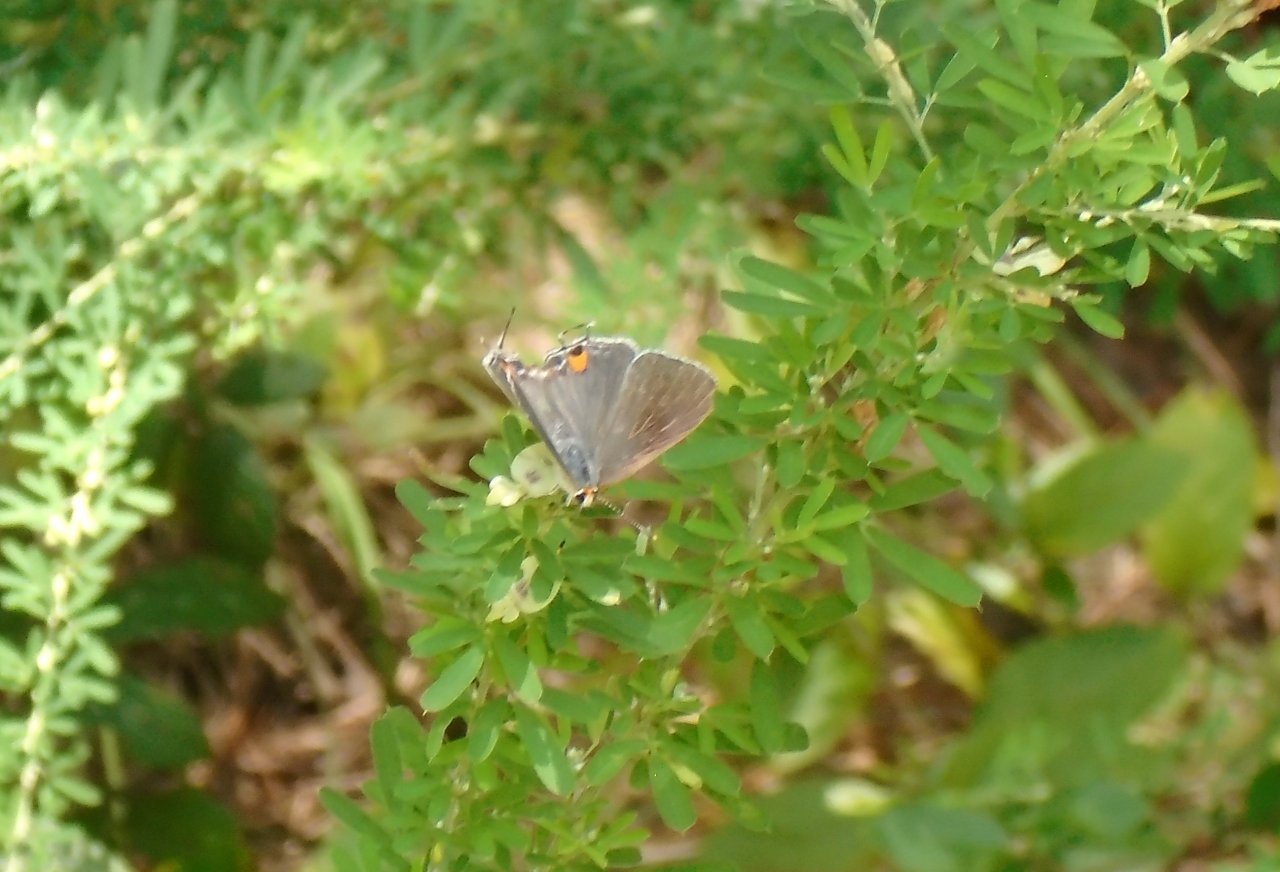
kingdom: Animalia
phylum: Arthropoda
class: Insecta
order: Lepidoptera
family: Lycaenidae
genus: Strymon
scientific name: Strymon melinus
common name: Gray Hairstreak
